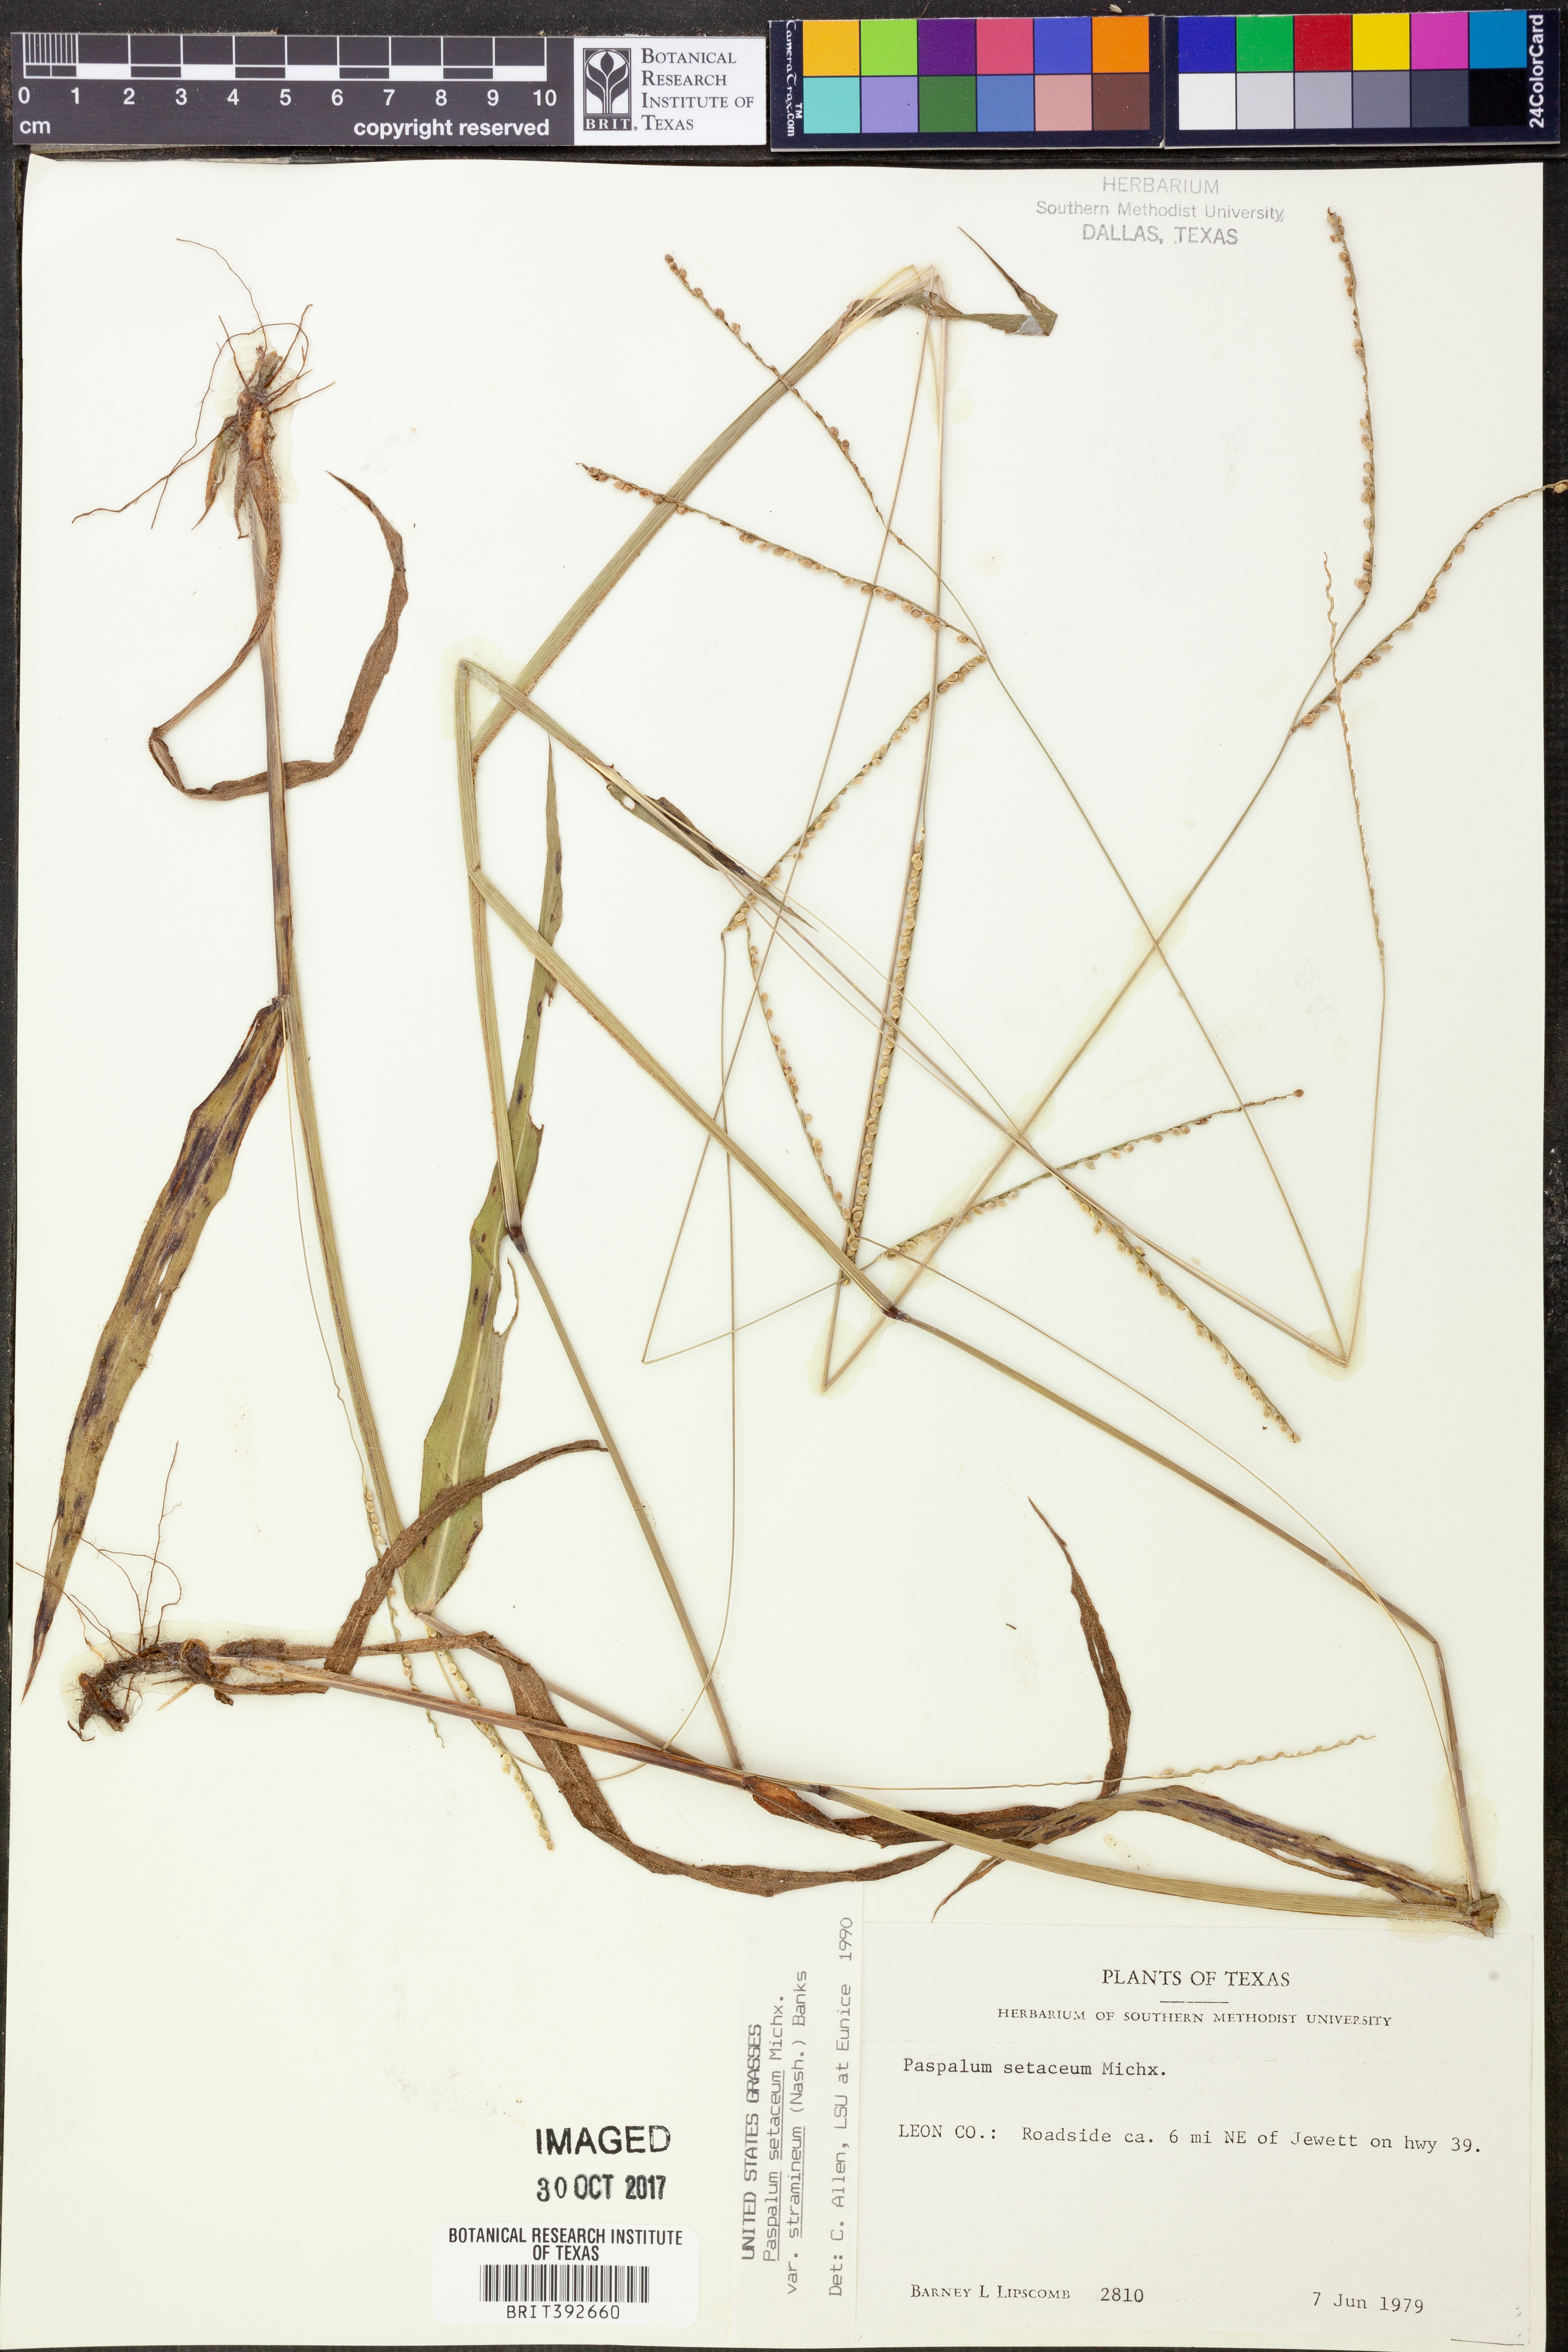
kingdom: Plantae
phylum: Tracheophyta
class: Liliopsida
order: Poales
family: Poaceae
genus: Paspalum
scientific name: Paspalum setaceum
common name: Slender paspalum
